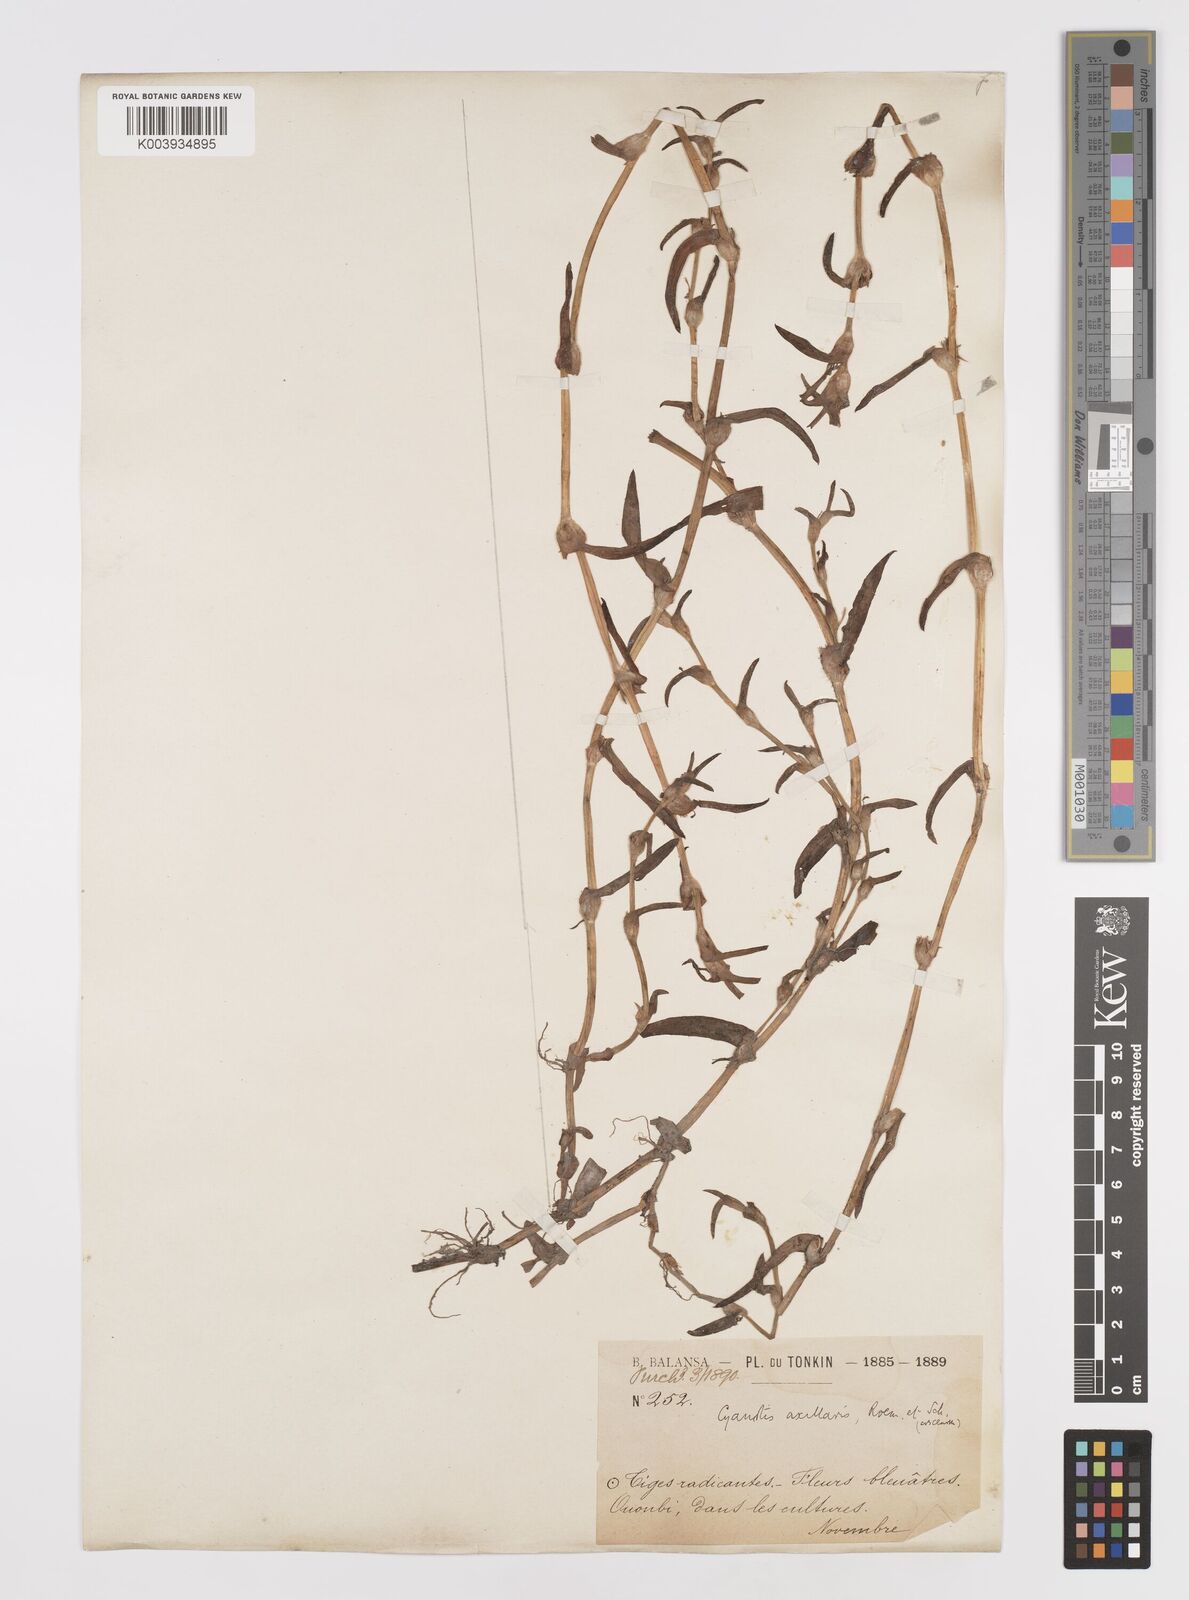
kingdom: Plantae
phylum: Tracheophyta
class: Liliopsida
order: Commelinales
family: Commelinaceae
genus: Cyanotis
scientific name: Cyanotis axillaris
